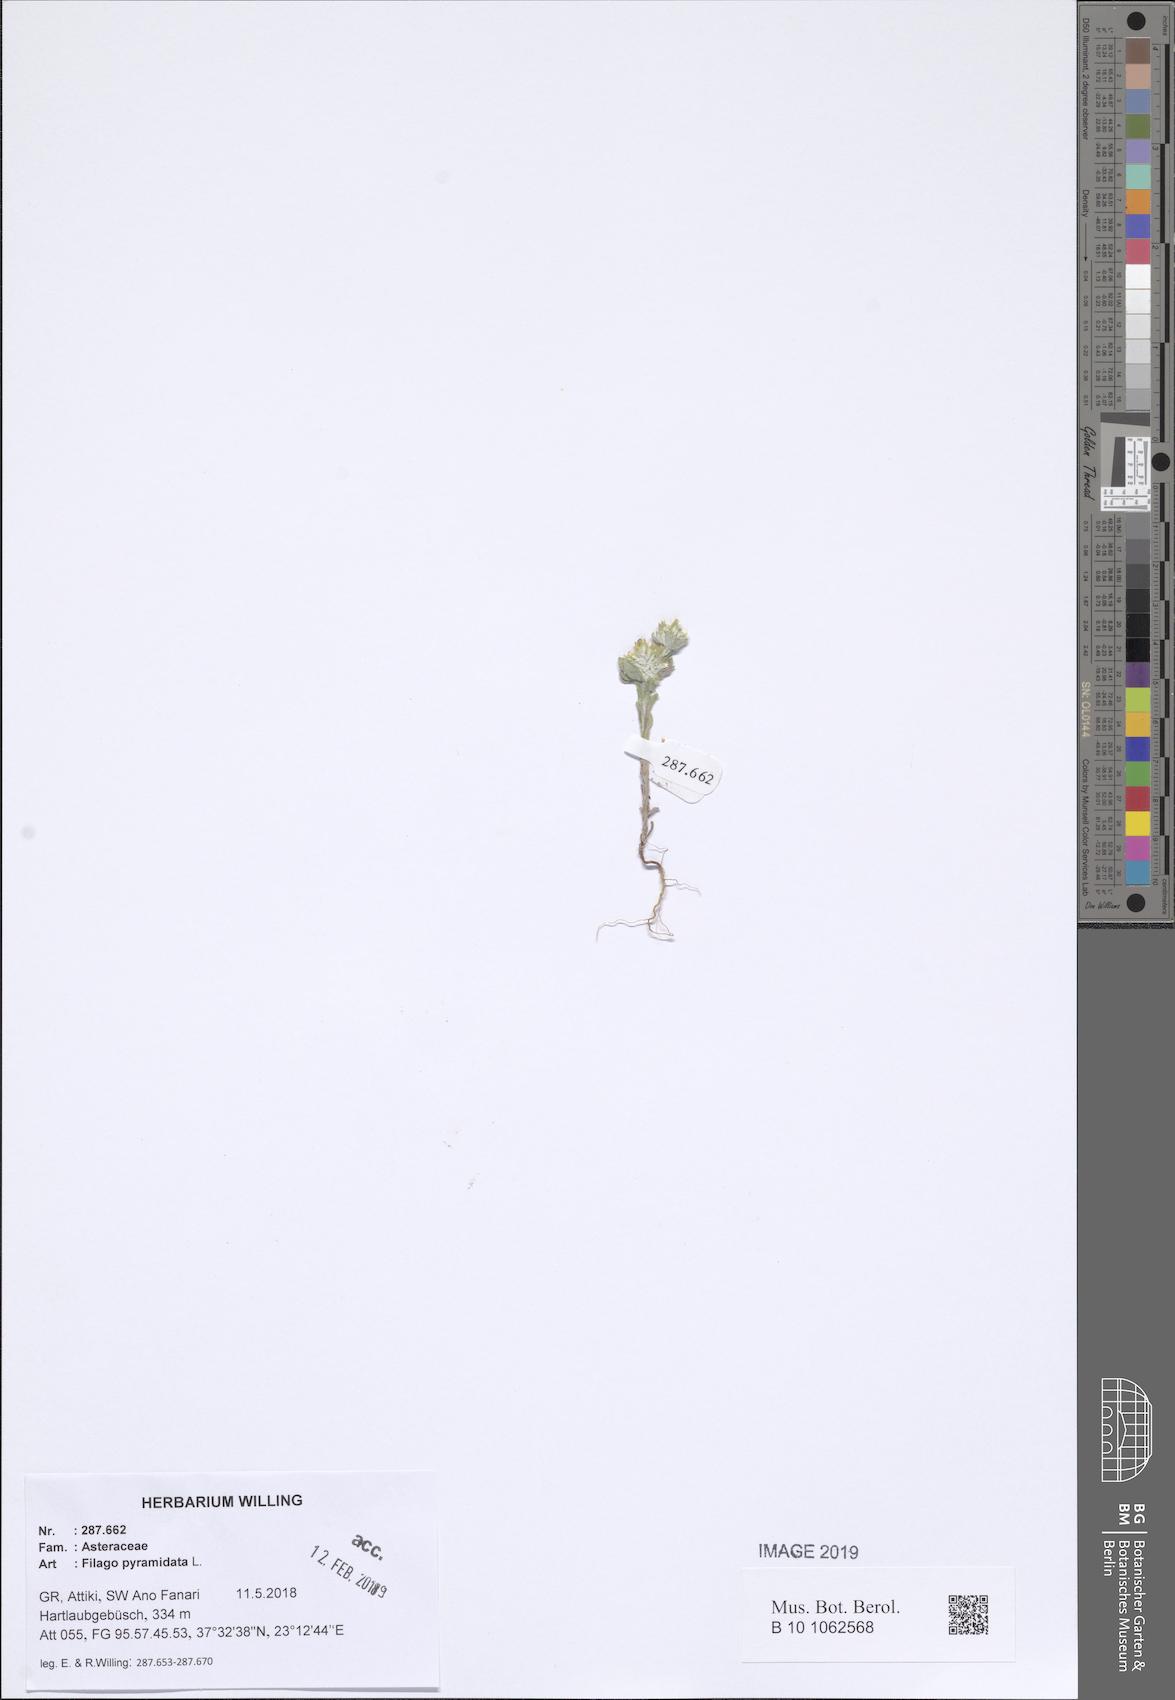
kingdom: Plantae
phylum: Tracheophyta
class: Magnoliopsida
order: Asterales
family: Asteraceae
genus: Filago
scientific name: Filago pyramidata
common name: Broad-leaved cudweed
